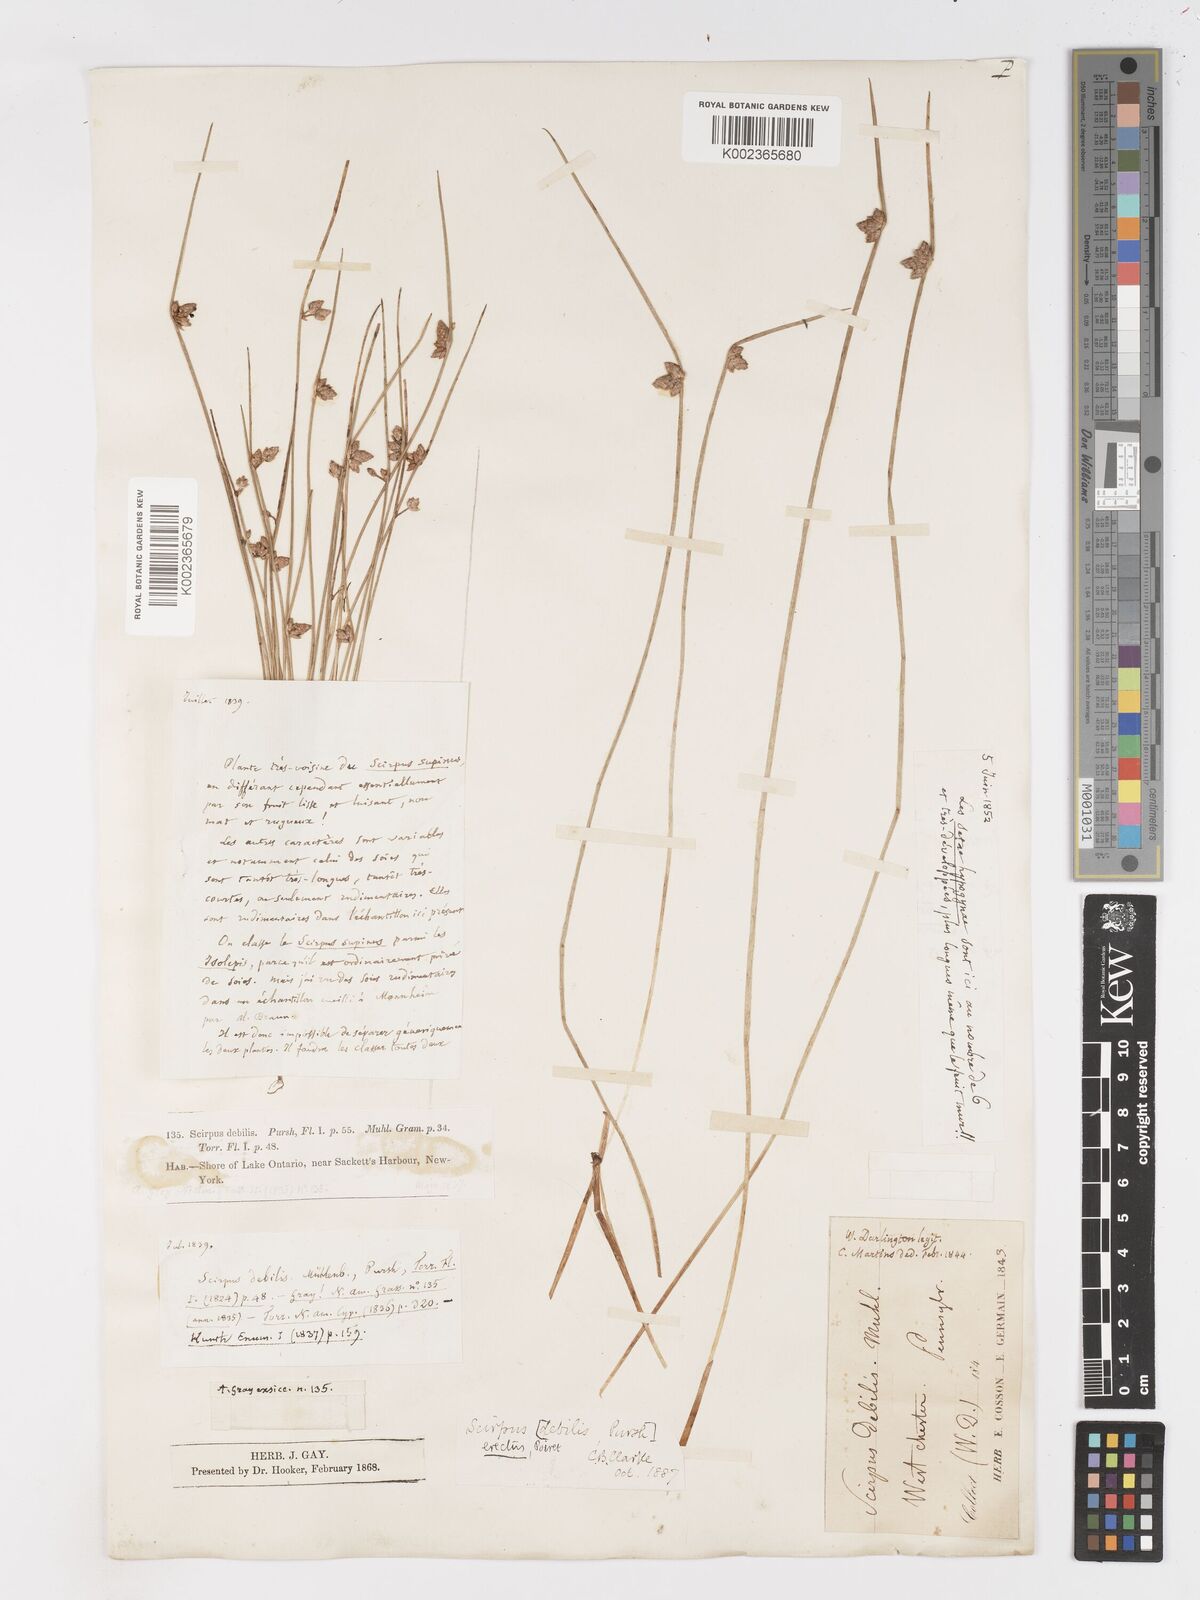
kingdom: Plantae
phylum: Tracheophyta
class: Liliopsida
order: Poales
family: Cyperaceae
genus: Schoenoplectiella
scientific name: Schoenoplectiella purshiana
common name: Weak-stalked bulrush
